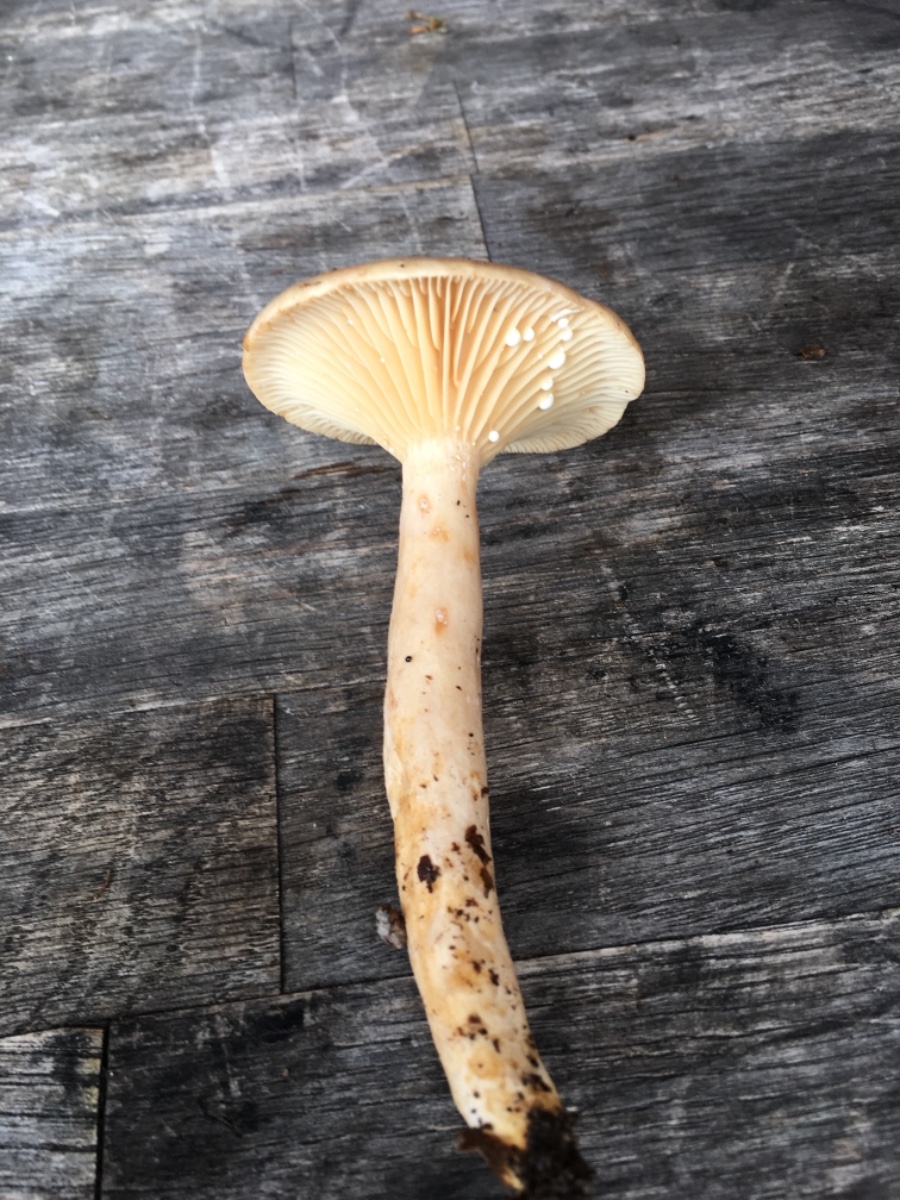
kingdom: Fungi
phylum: Basidiomycota
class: Agaricomycetes
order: Russulales
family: Russulaceae
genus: Lactarius
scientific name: Lactarius pyrogalus
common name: hassel-mælkehat
